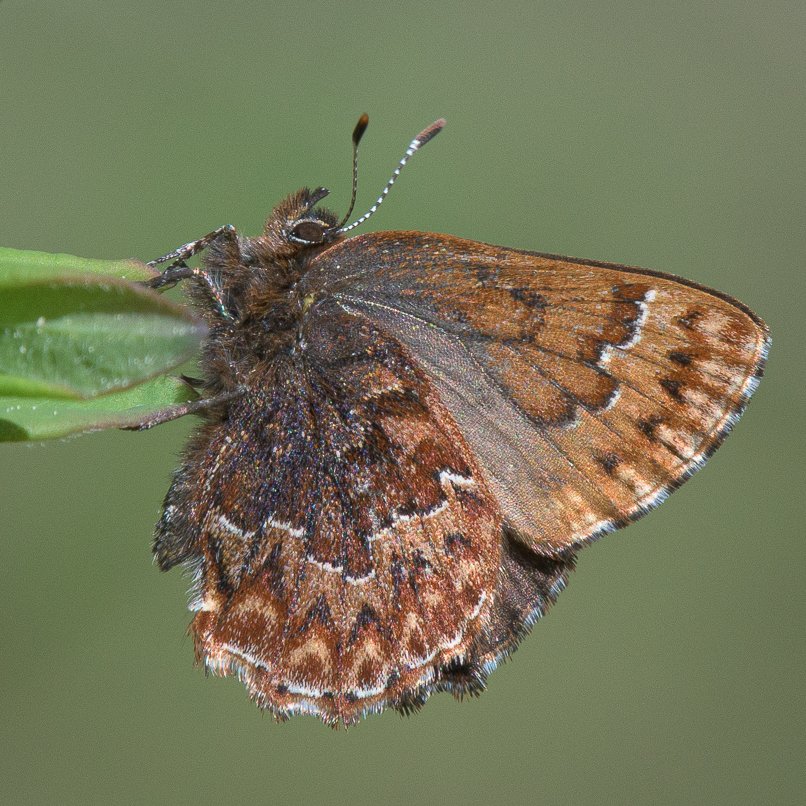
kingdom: Animalia
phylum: Arthropoda
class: Insecta
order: Lepidoptera
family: Lycaenidae
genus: Incisalia
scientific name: Incisalia eryphon
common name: Western Pine Elfin
